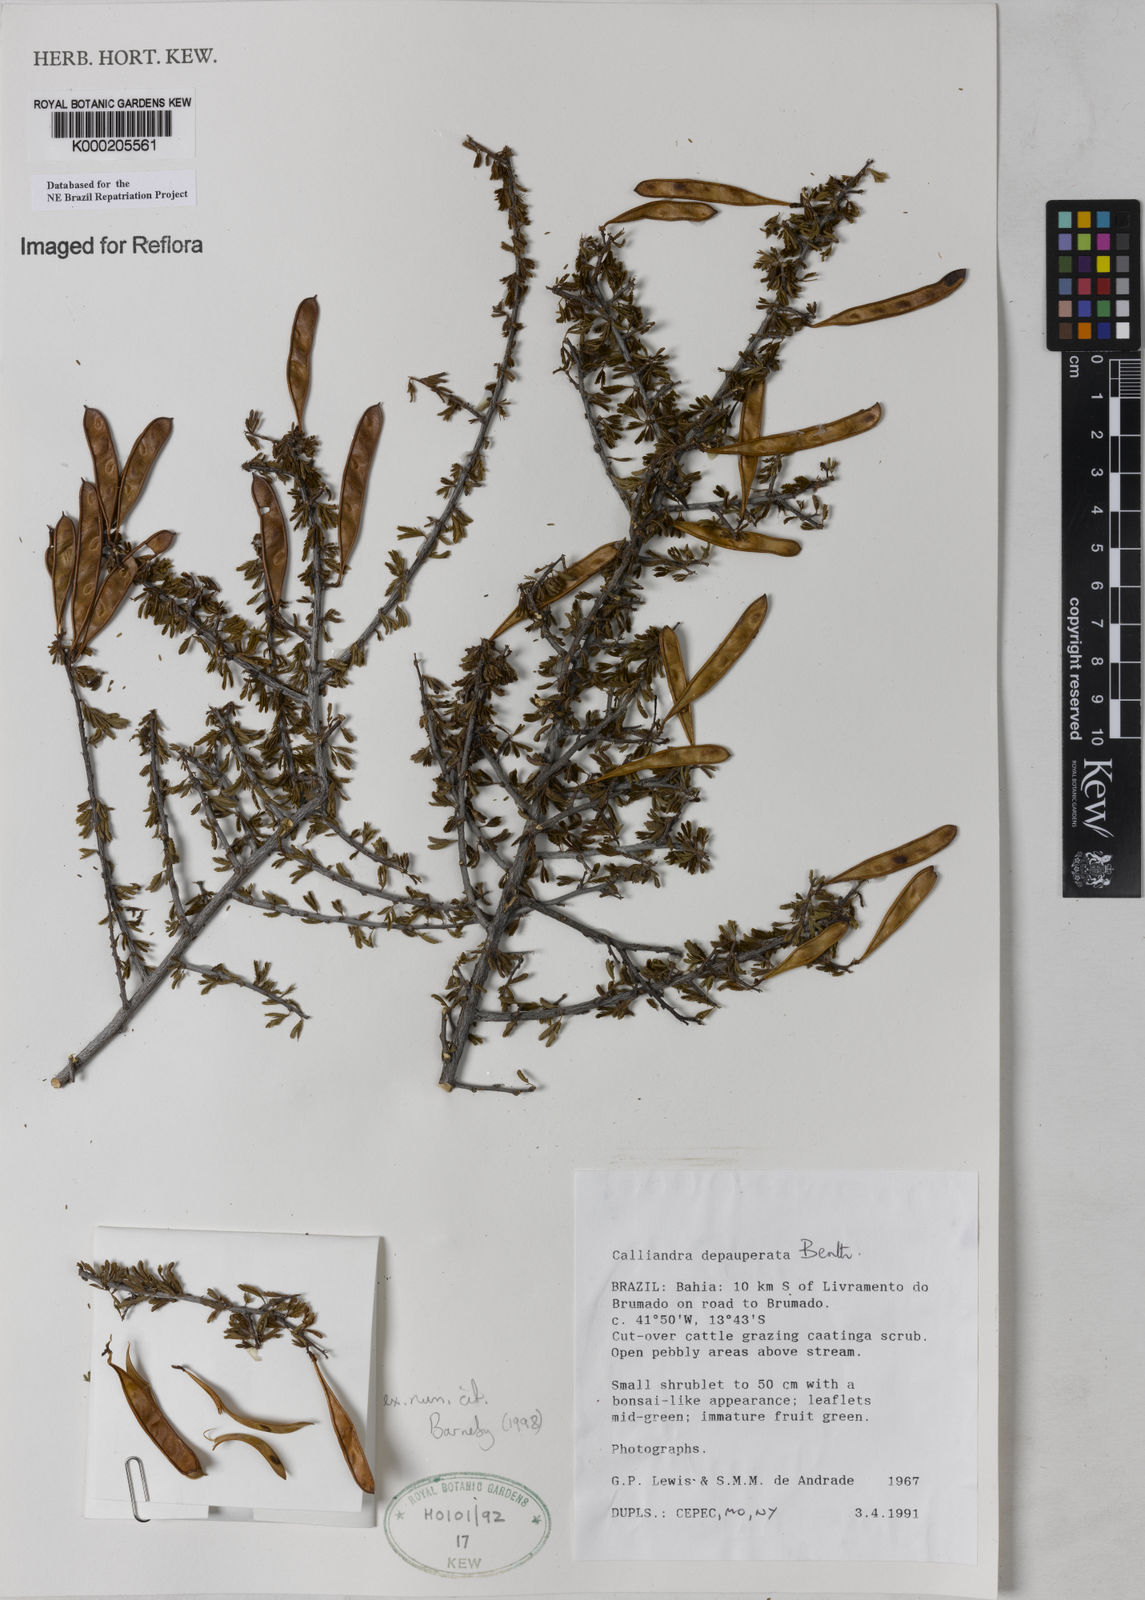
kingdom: Plantae
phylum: Tracheophyta
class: Magnoliopsida
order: Fabales
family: Fabaceae
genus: Calliandra
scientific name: Calliandra depauperata
